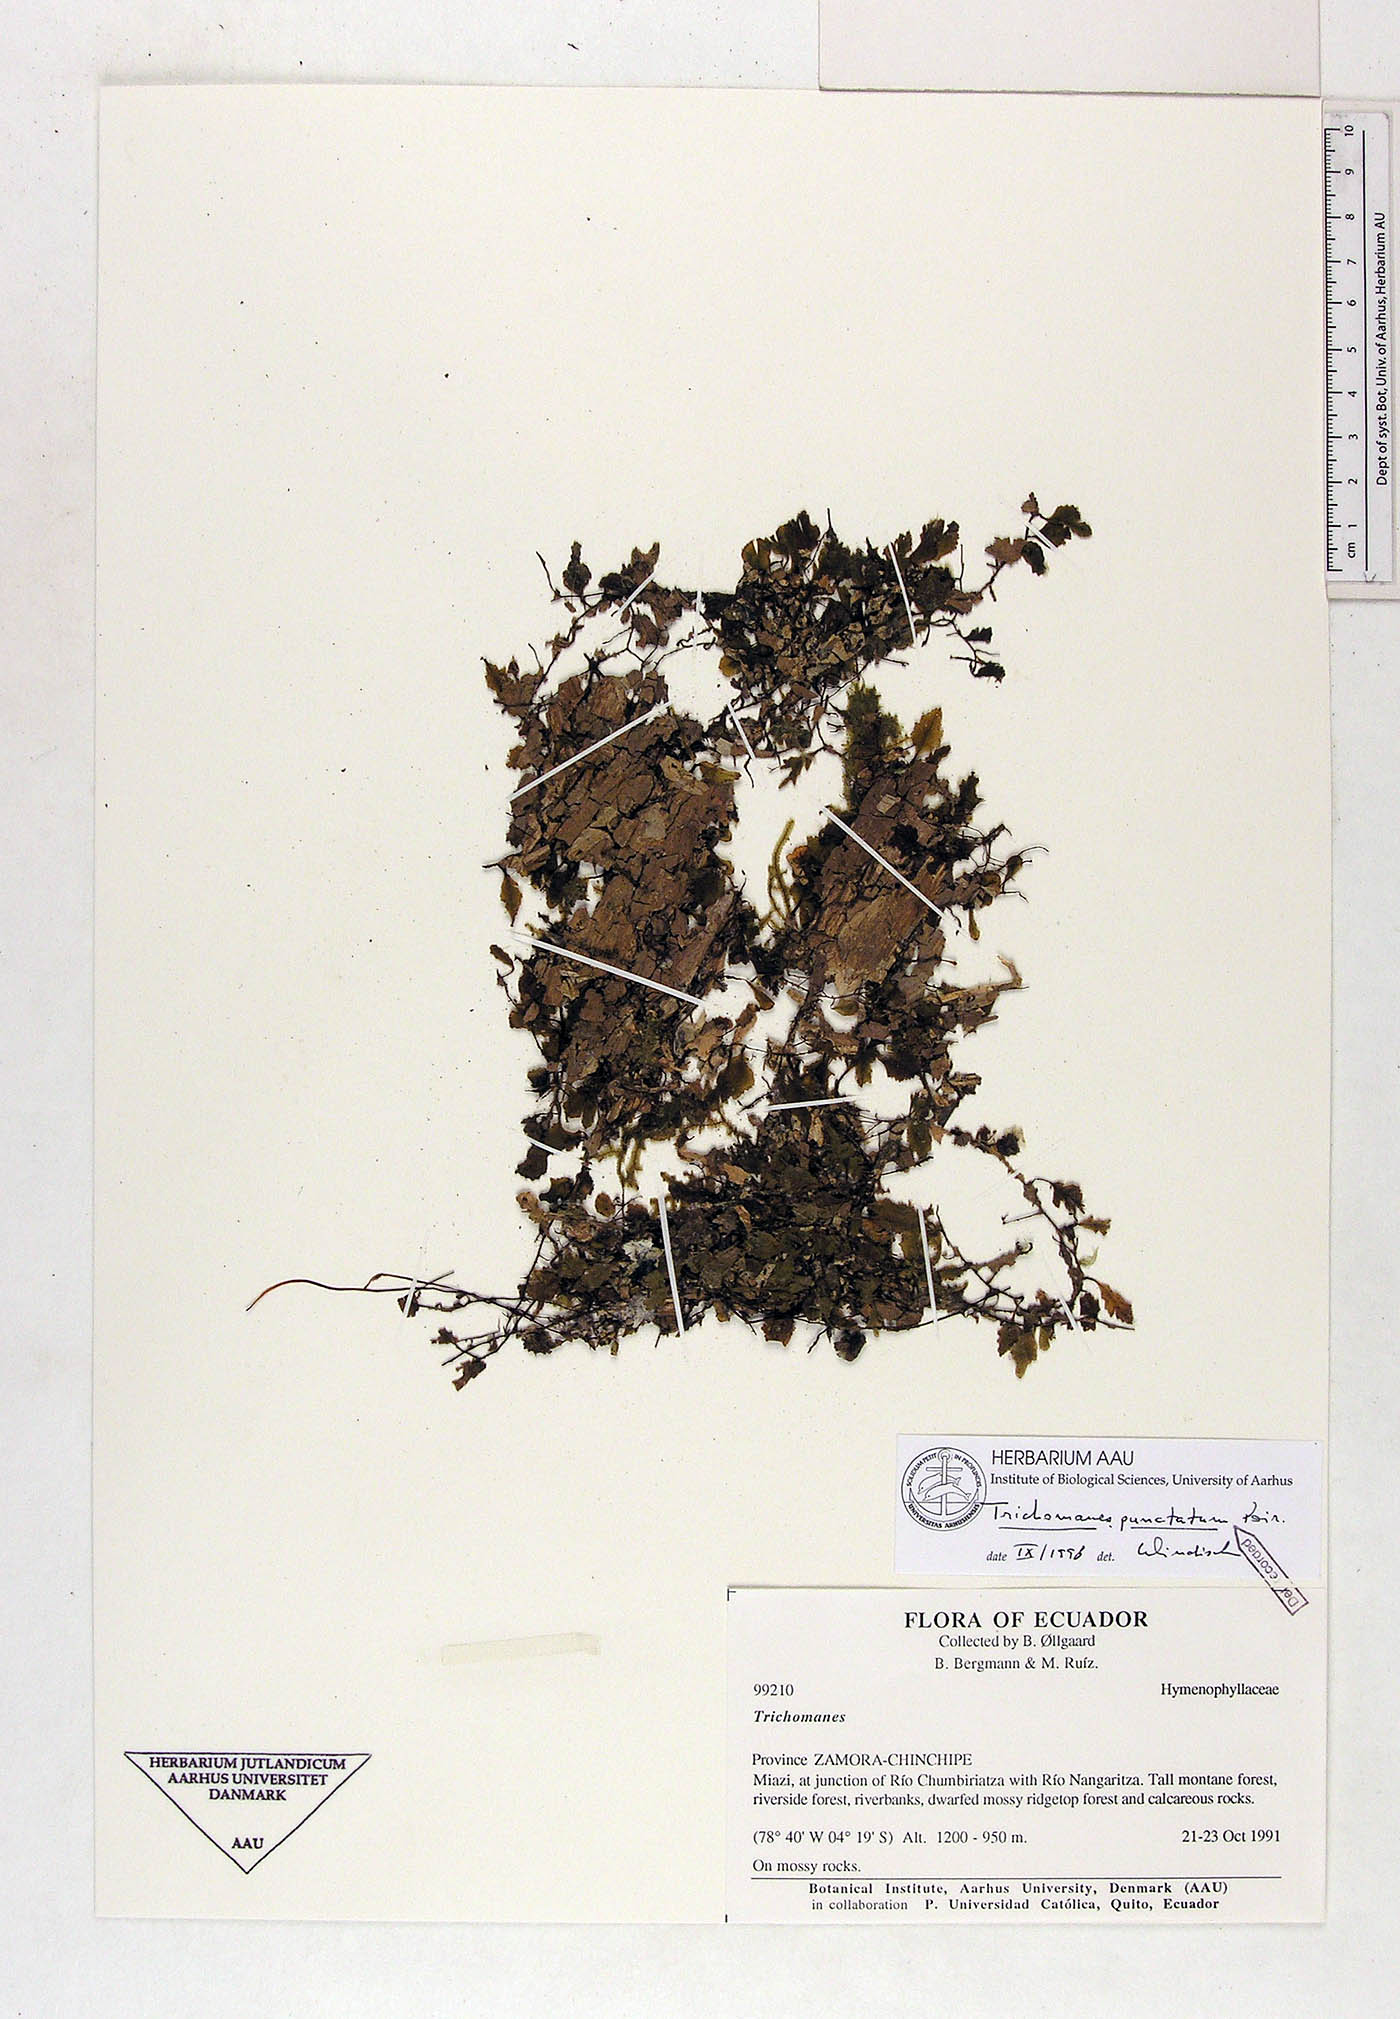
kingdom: Plantae
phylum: Tracheophyta
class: Polypodiopsida
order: Hymenophyllales
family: Hymenophyllaceae
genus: Didymoglossum
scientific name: Didymoglossum punctatum
